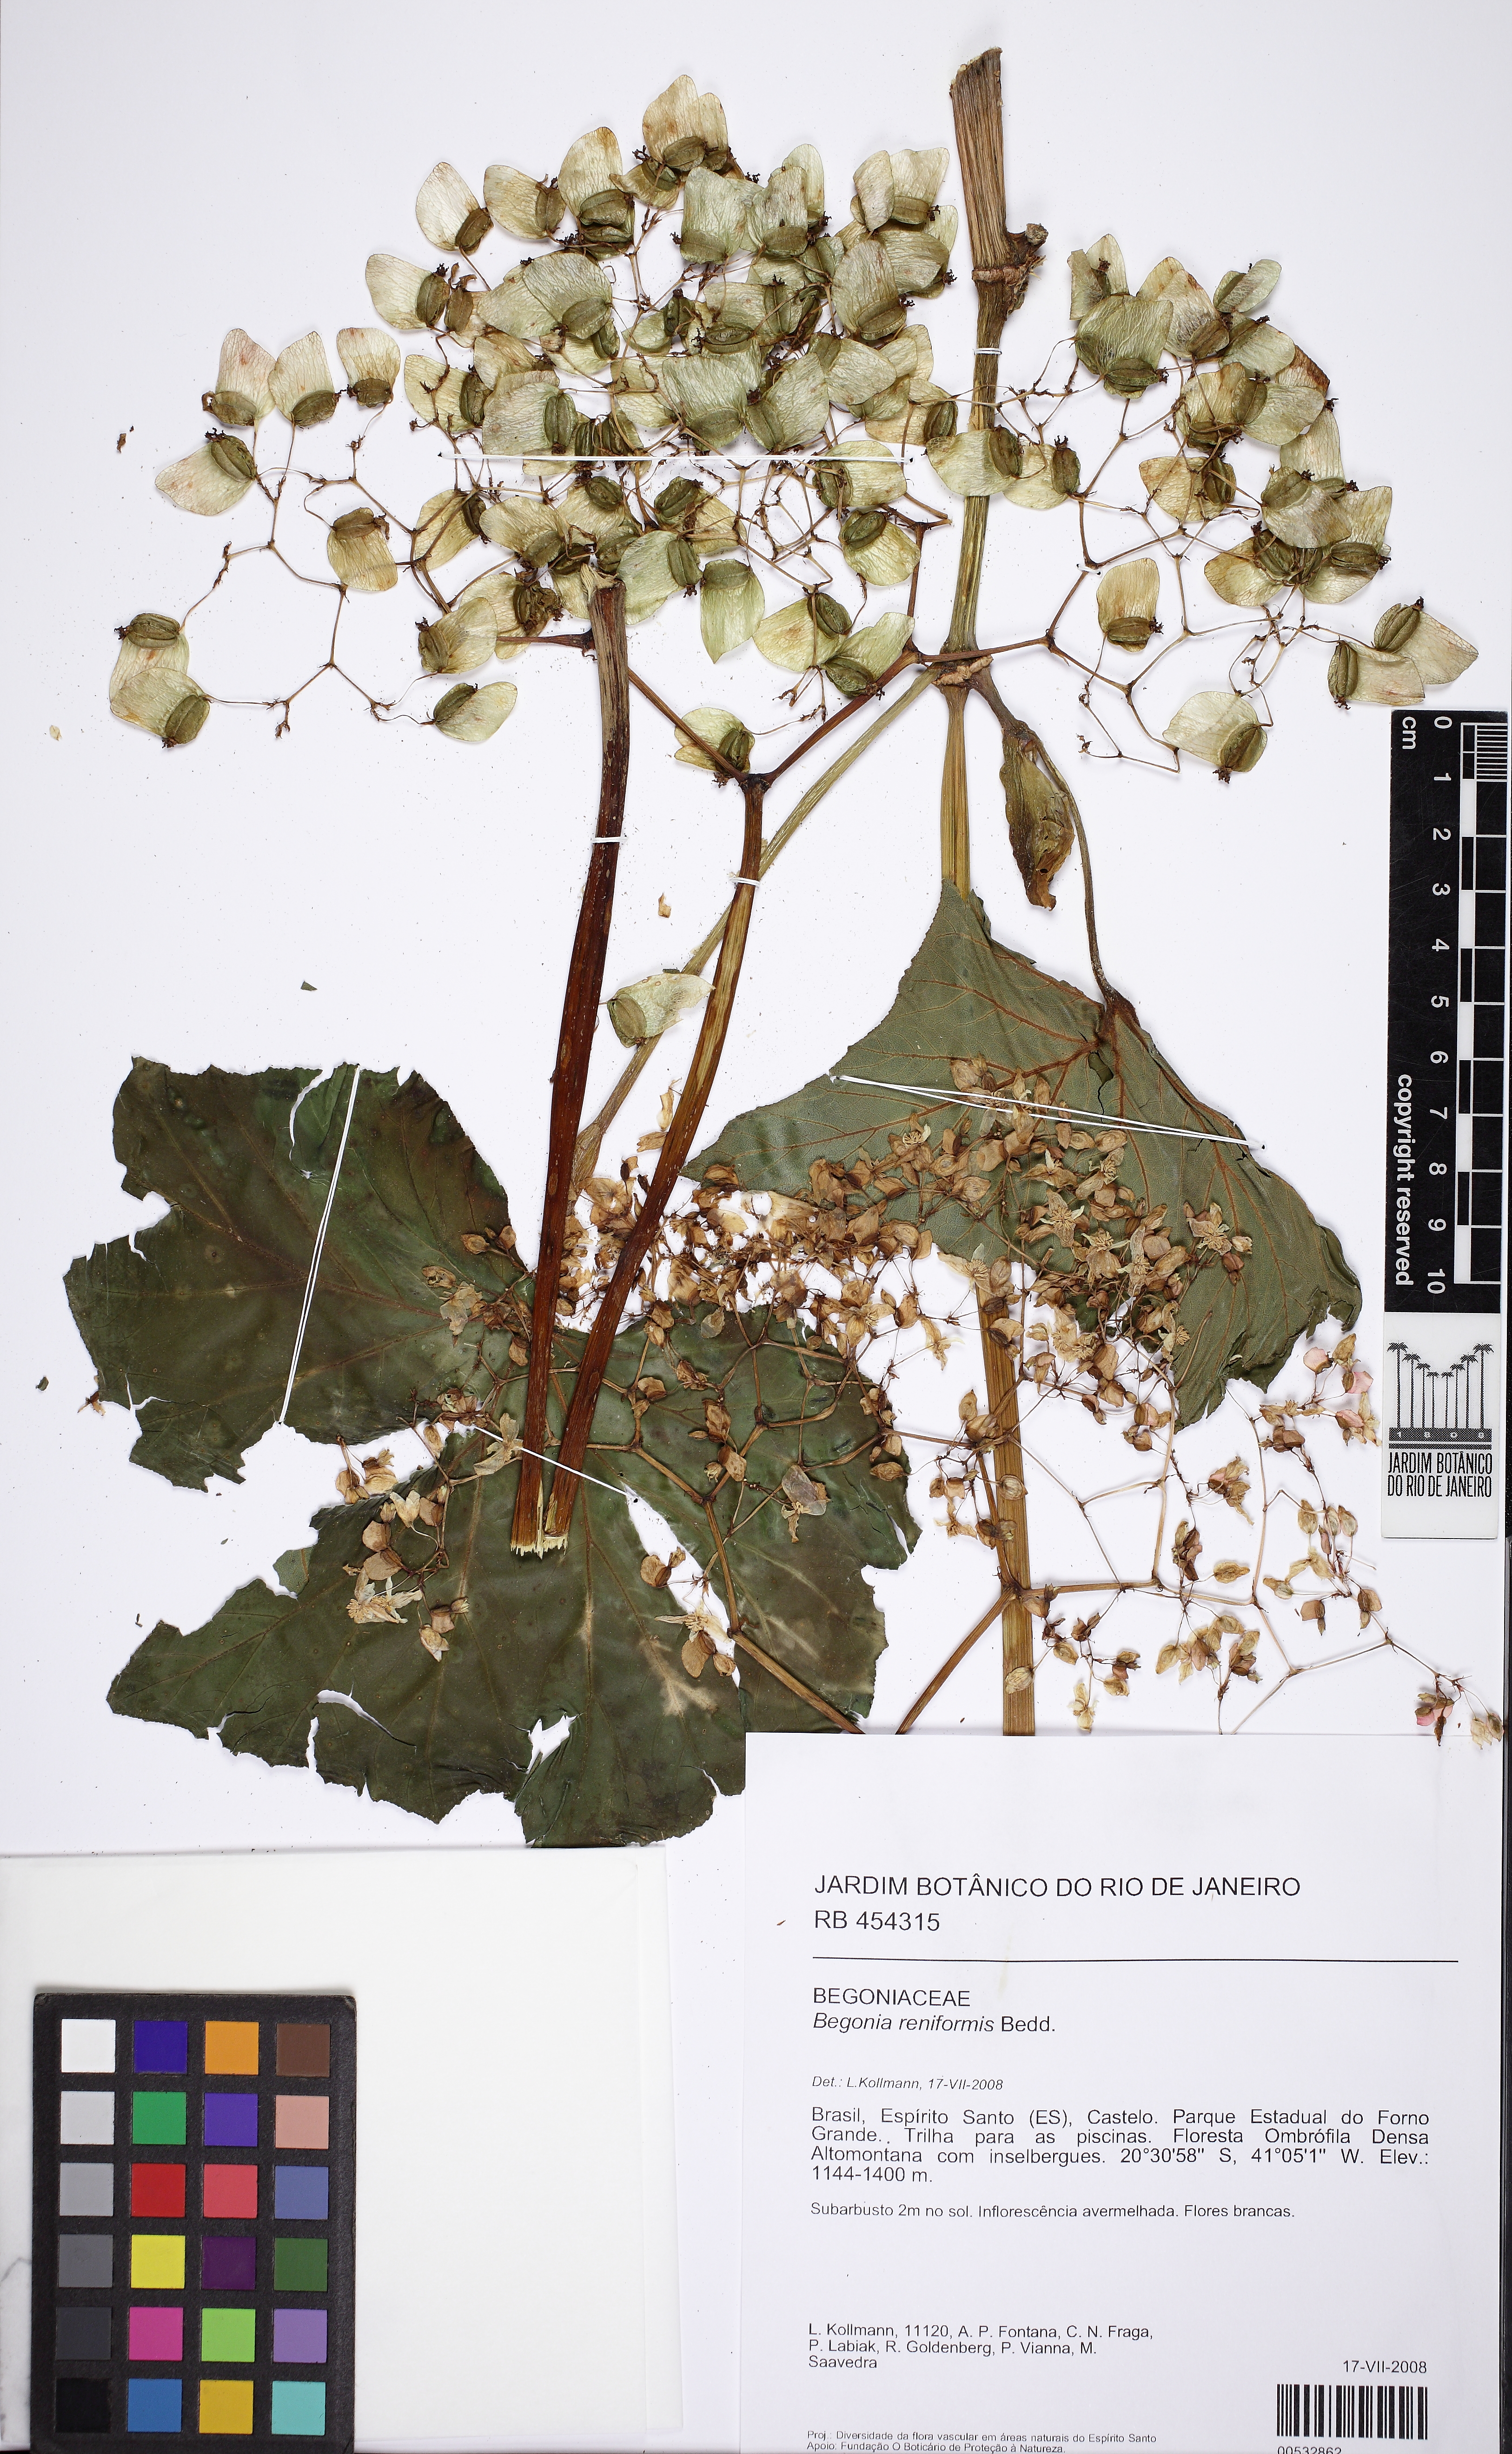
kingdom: Plantae
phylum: Tracheophyta
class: Magnoliopsida
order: Cucurbitales
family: Begoniaceae
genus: Begonia
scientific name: Begonia reniformis
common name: Grapeleaf begonia
